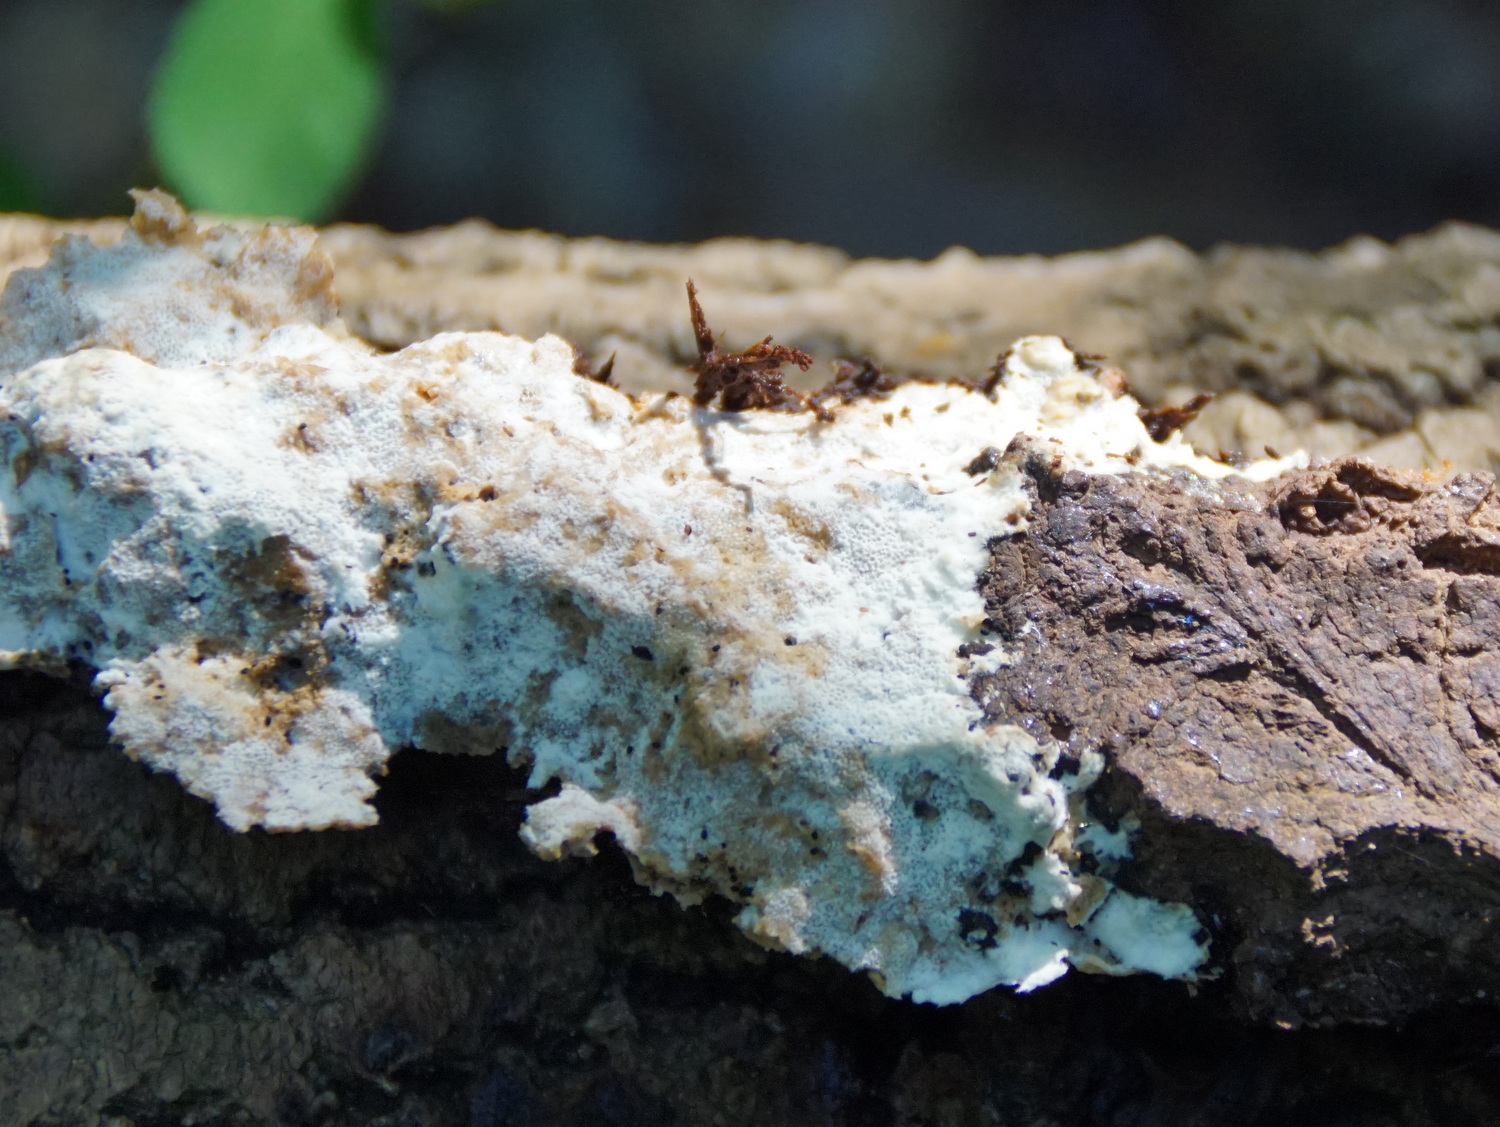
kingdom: Fungi
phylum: Basidiomycota
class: Agaricomycetes
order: Hymenochaetales
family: Oxyporaceae
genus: Oxyporus
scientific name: Oxyporus corticola
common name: storporet trylleporesvamp
